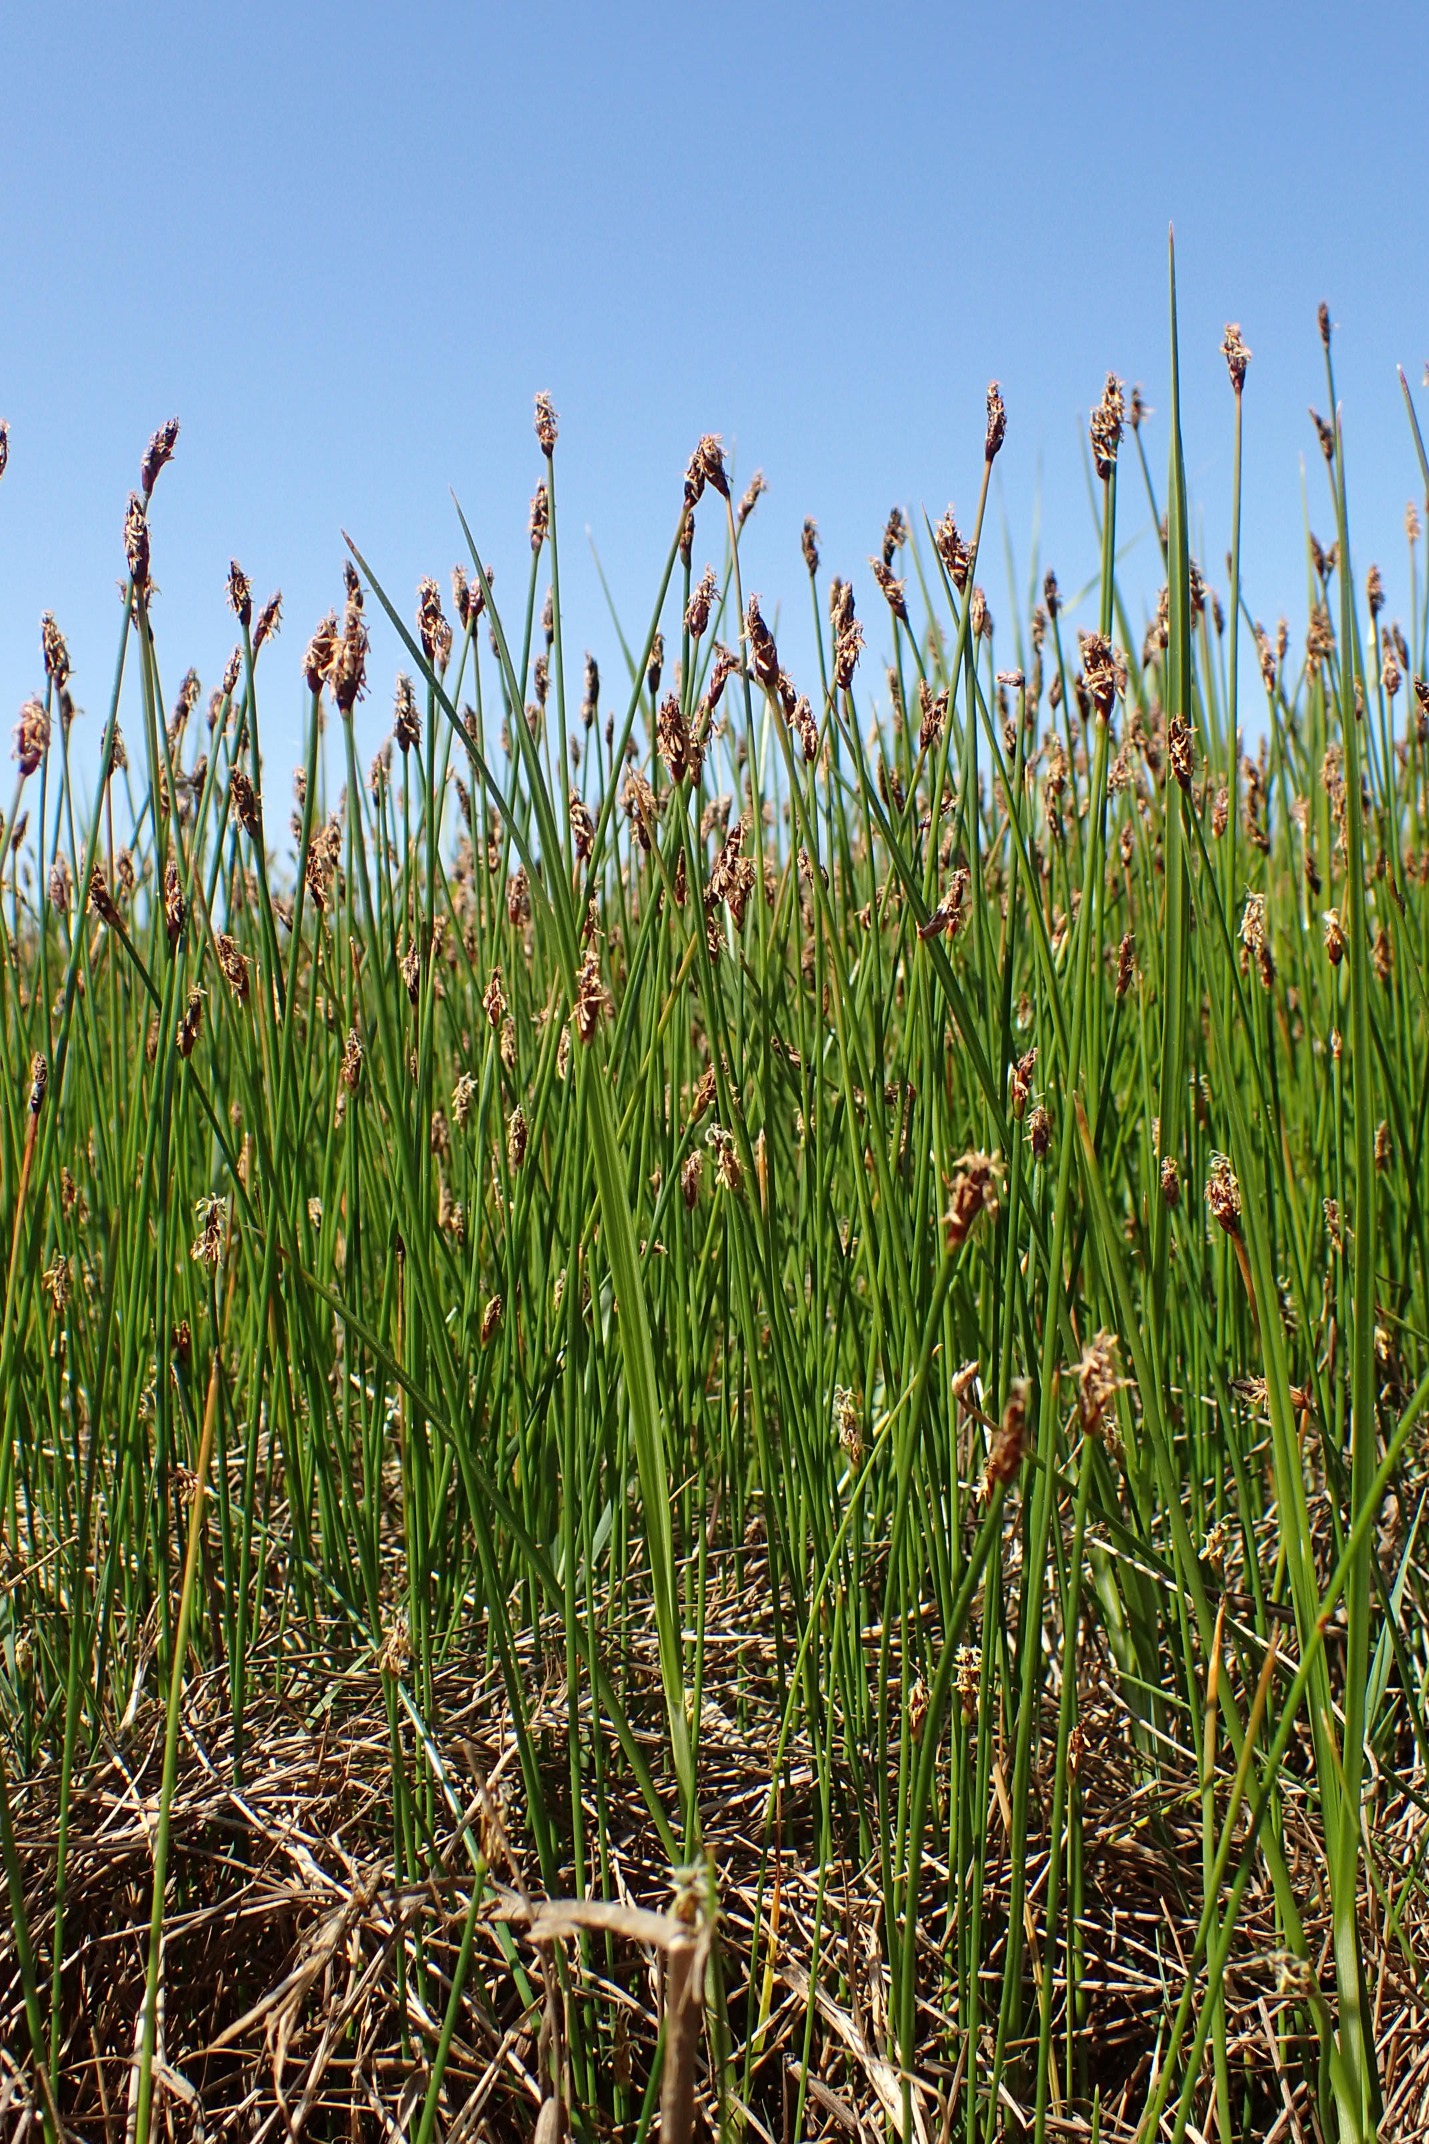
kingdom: Plantae
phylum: Tracheophyta
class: Liliopsida
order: Poales
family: Cyperaceae
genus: Eleocharis
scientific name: Eleocharis uniglumis
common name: Enskællet sumpstrå
